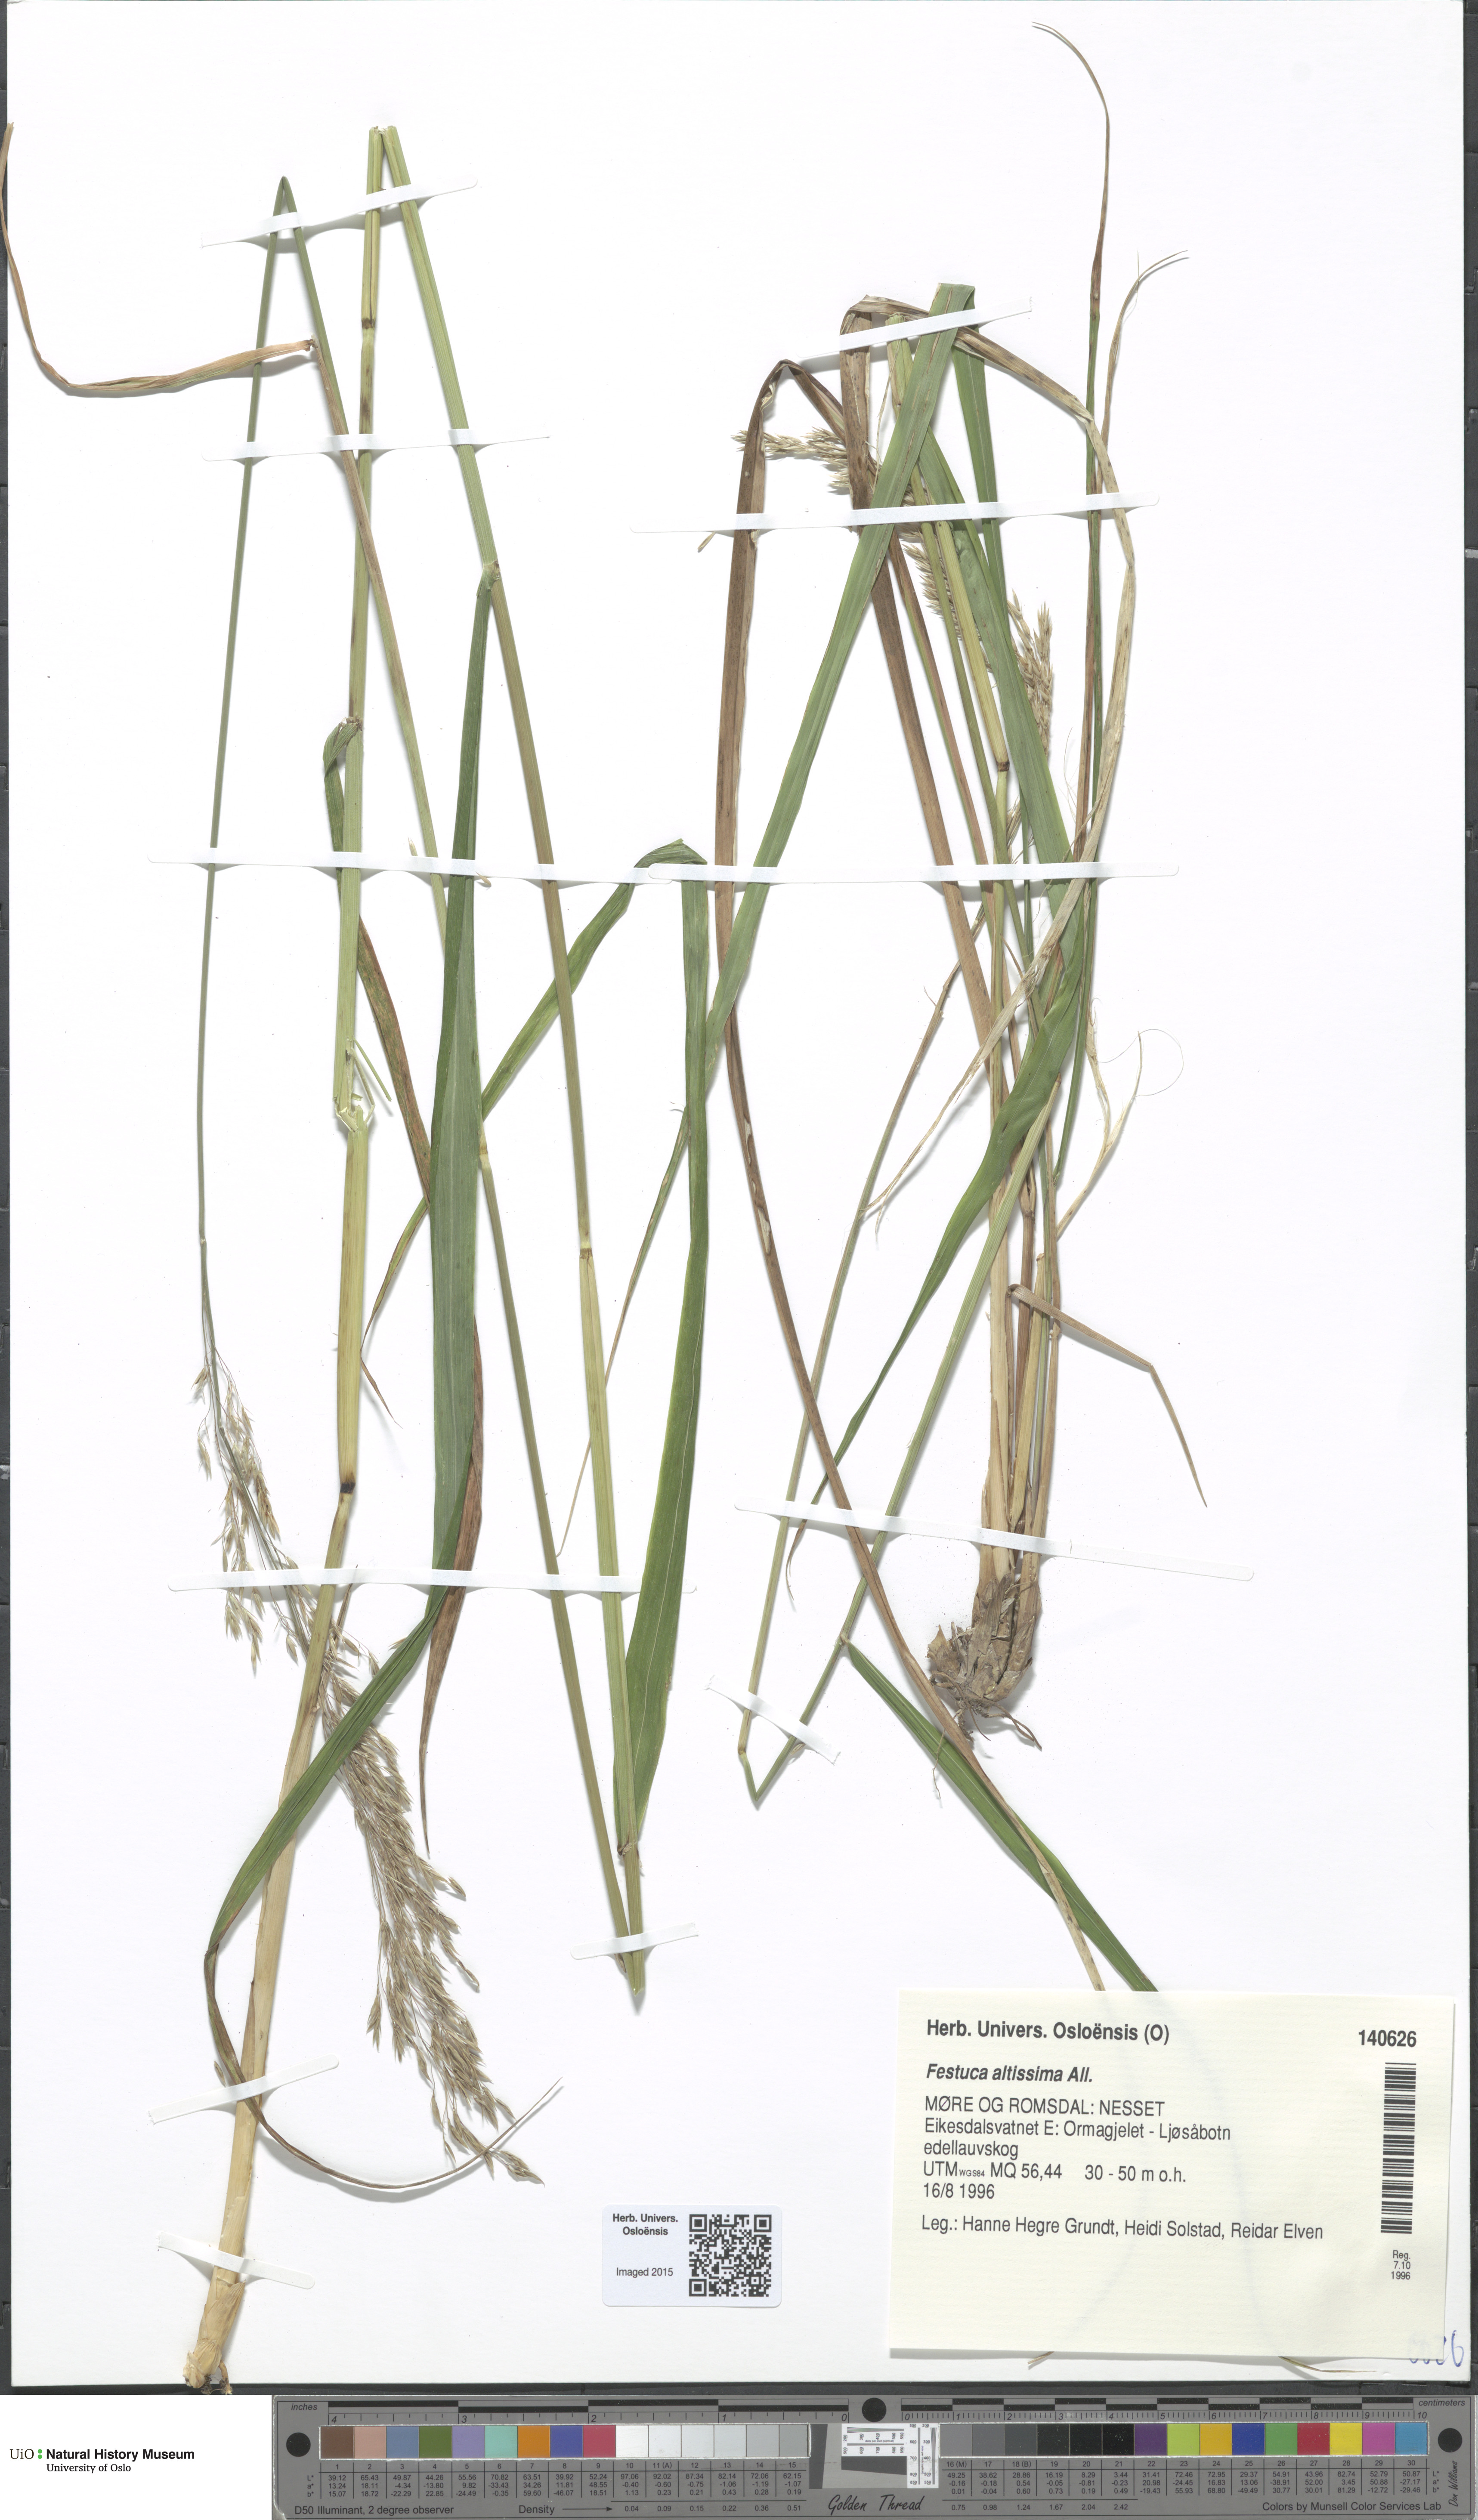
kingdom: Plantae
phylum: Tracheophyta
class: Liliopsida
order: Poales
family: Poaceae
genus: Festuca
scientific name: Festuca altissima
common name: Wood fescue
